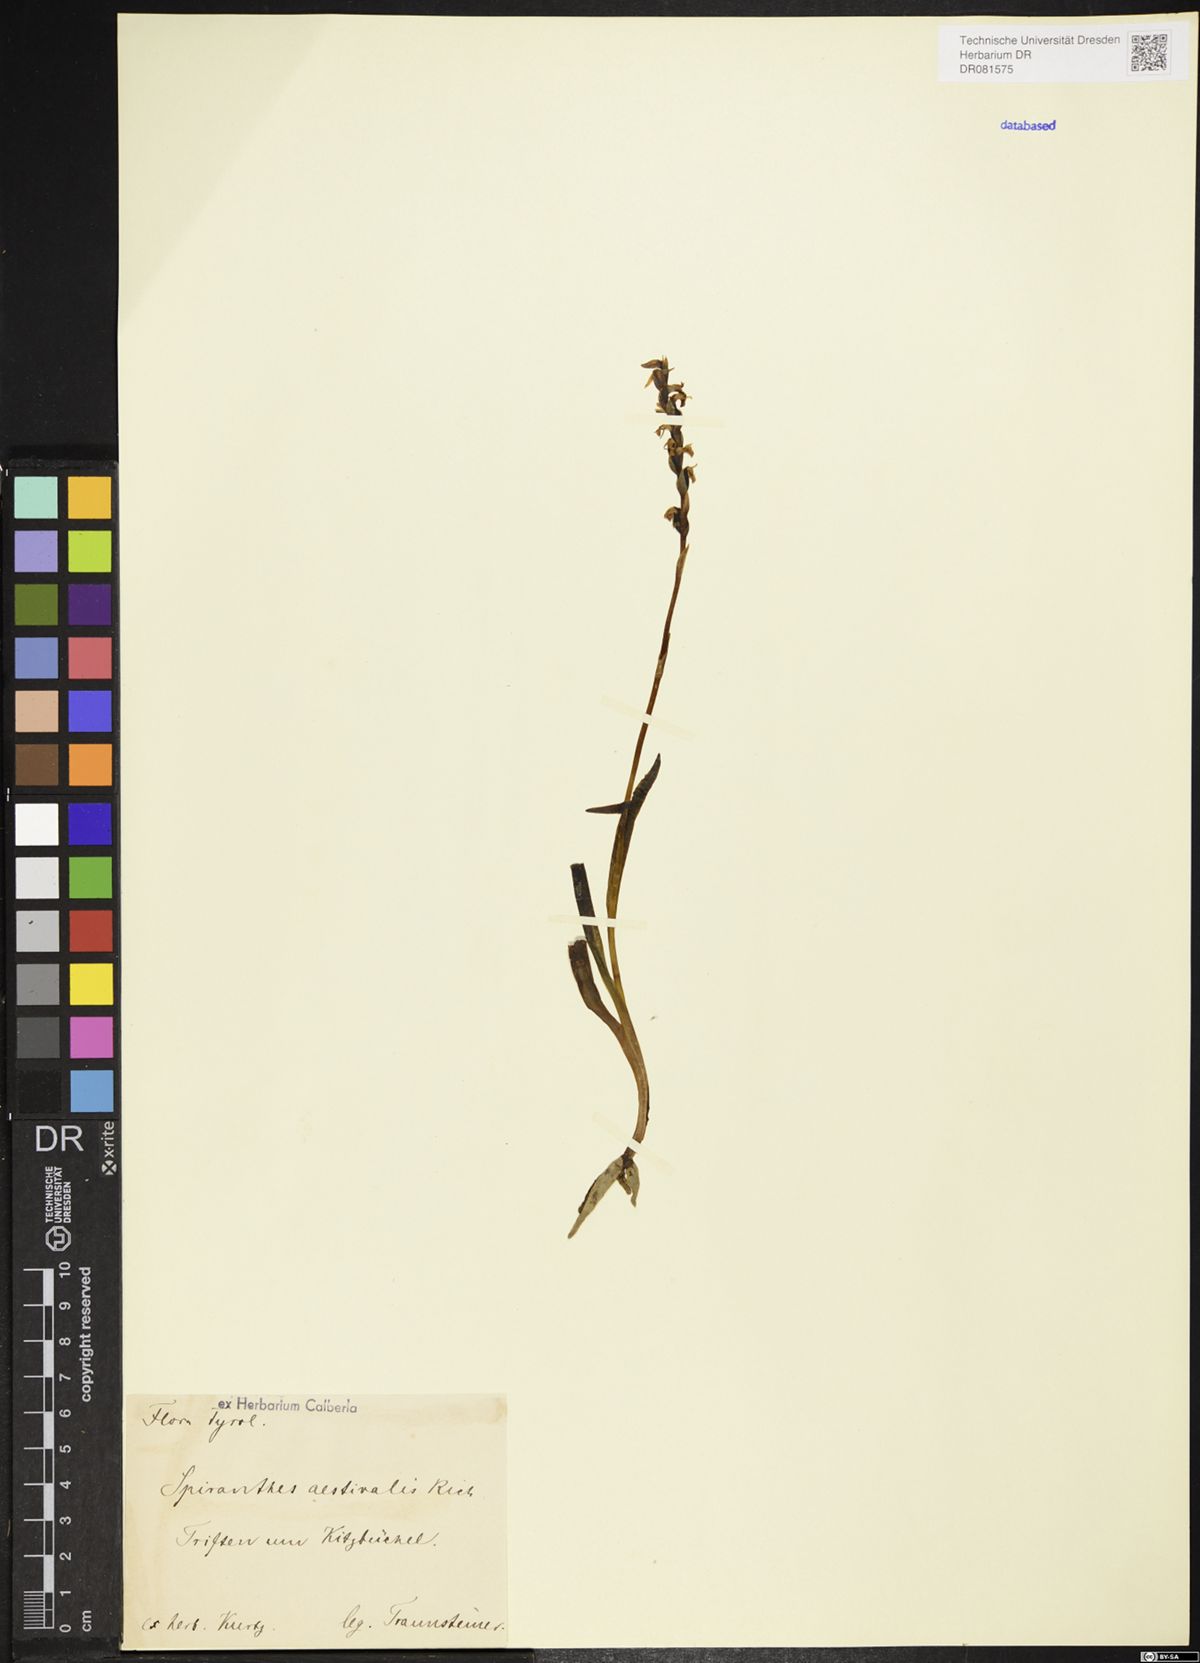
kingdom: Plantae
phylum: Tracheophyta
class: Liliopsida
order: Asparagales
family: Orchidaceae
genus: Spiranthes
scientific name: Spiranthes aestivalis
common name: Summer lady's-tresses
